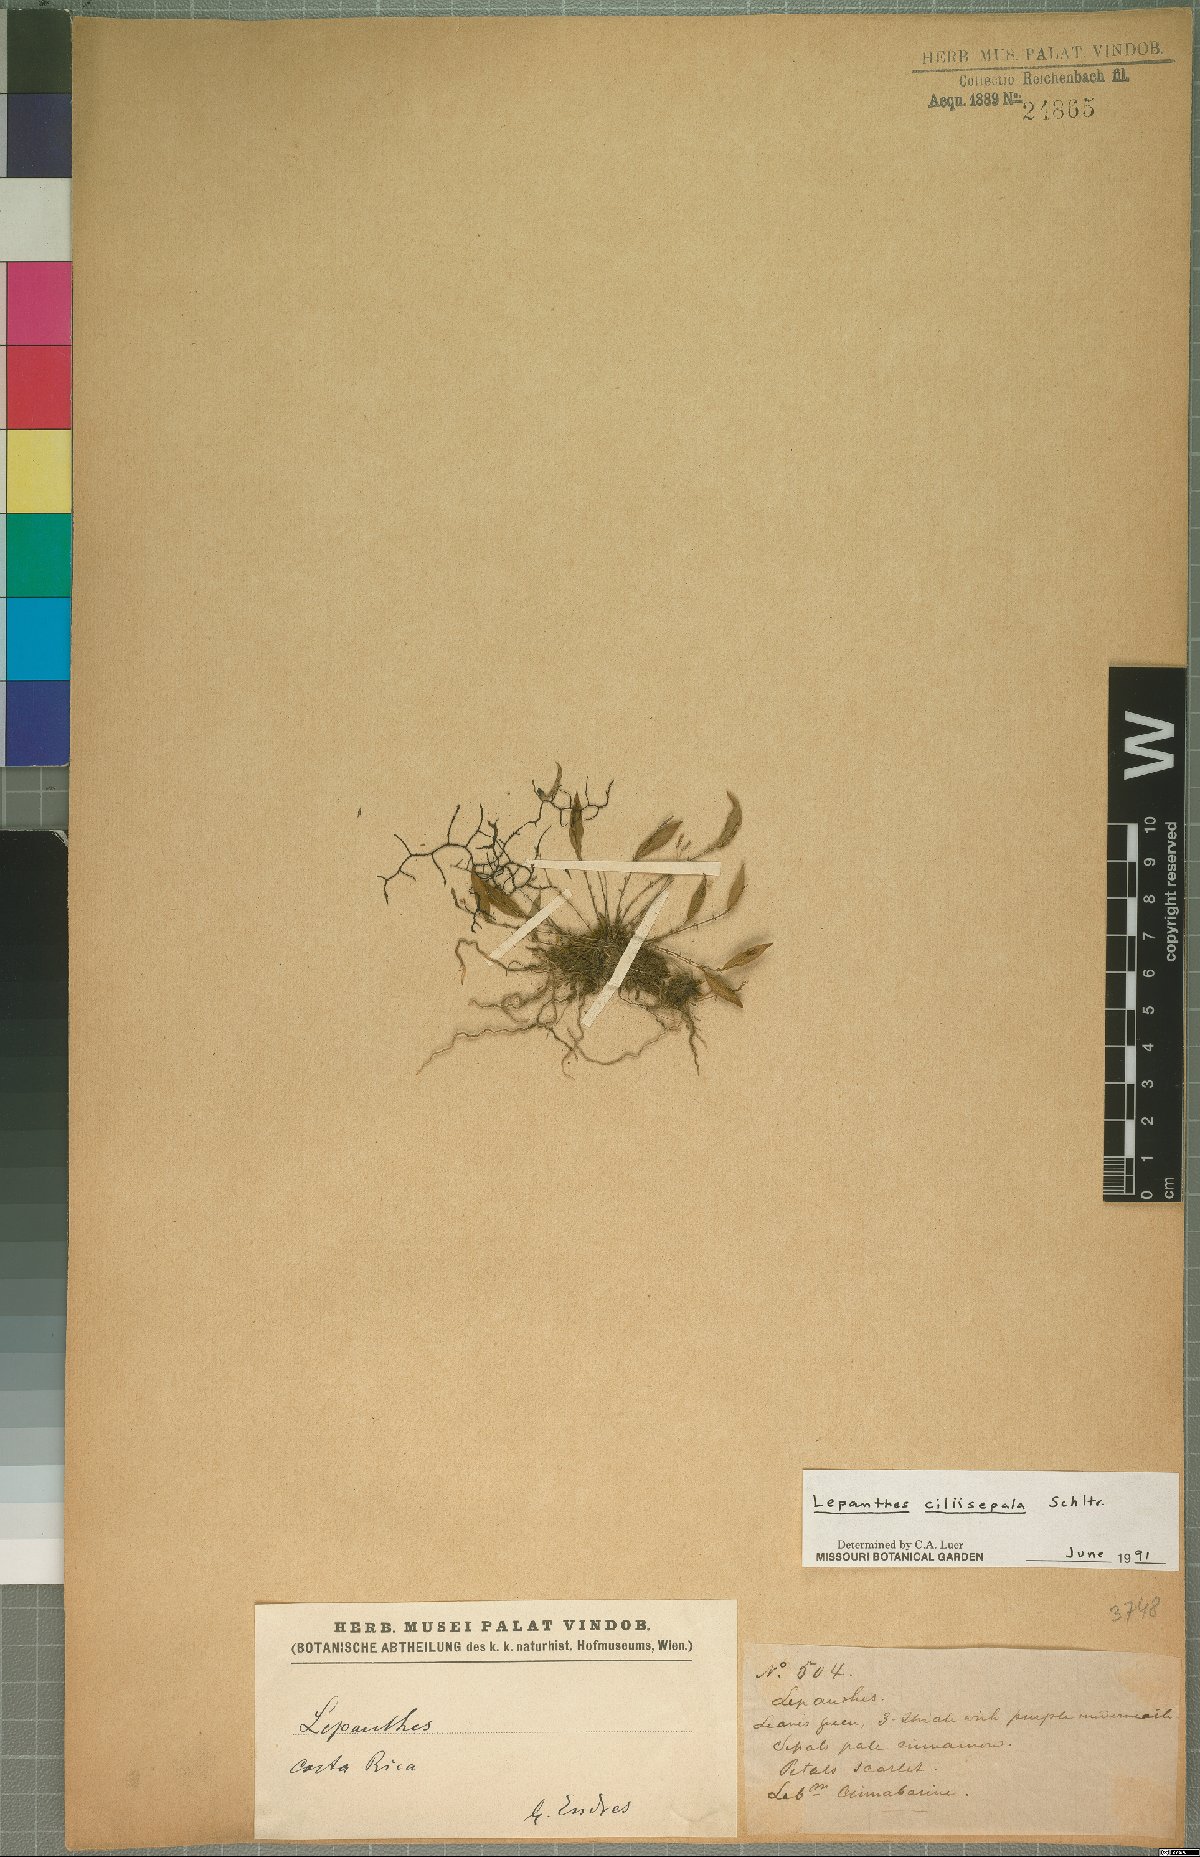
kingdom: Plantae
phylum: Tracheophyta
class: Liliopsida
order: Asparagales
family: Orchidaceae
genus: Lepanthes
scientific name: Lepanthes ciliisepala
